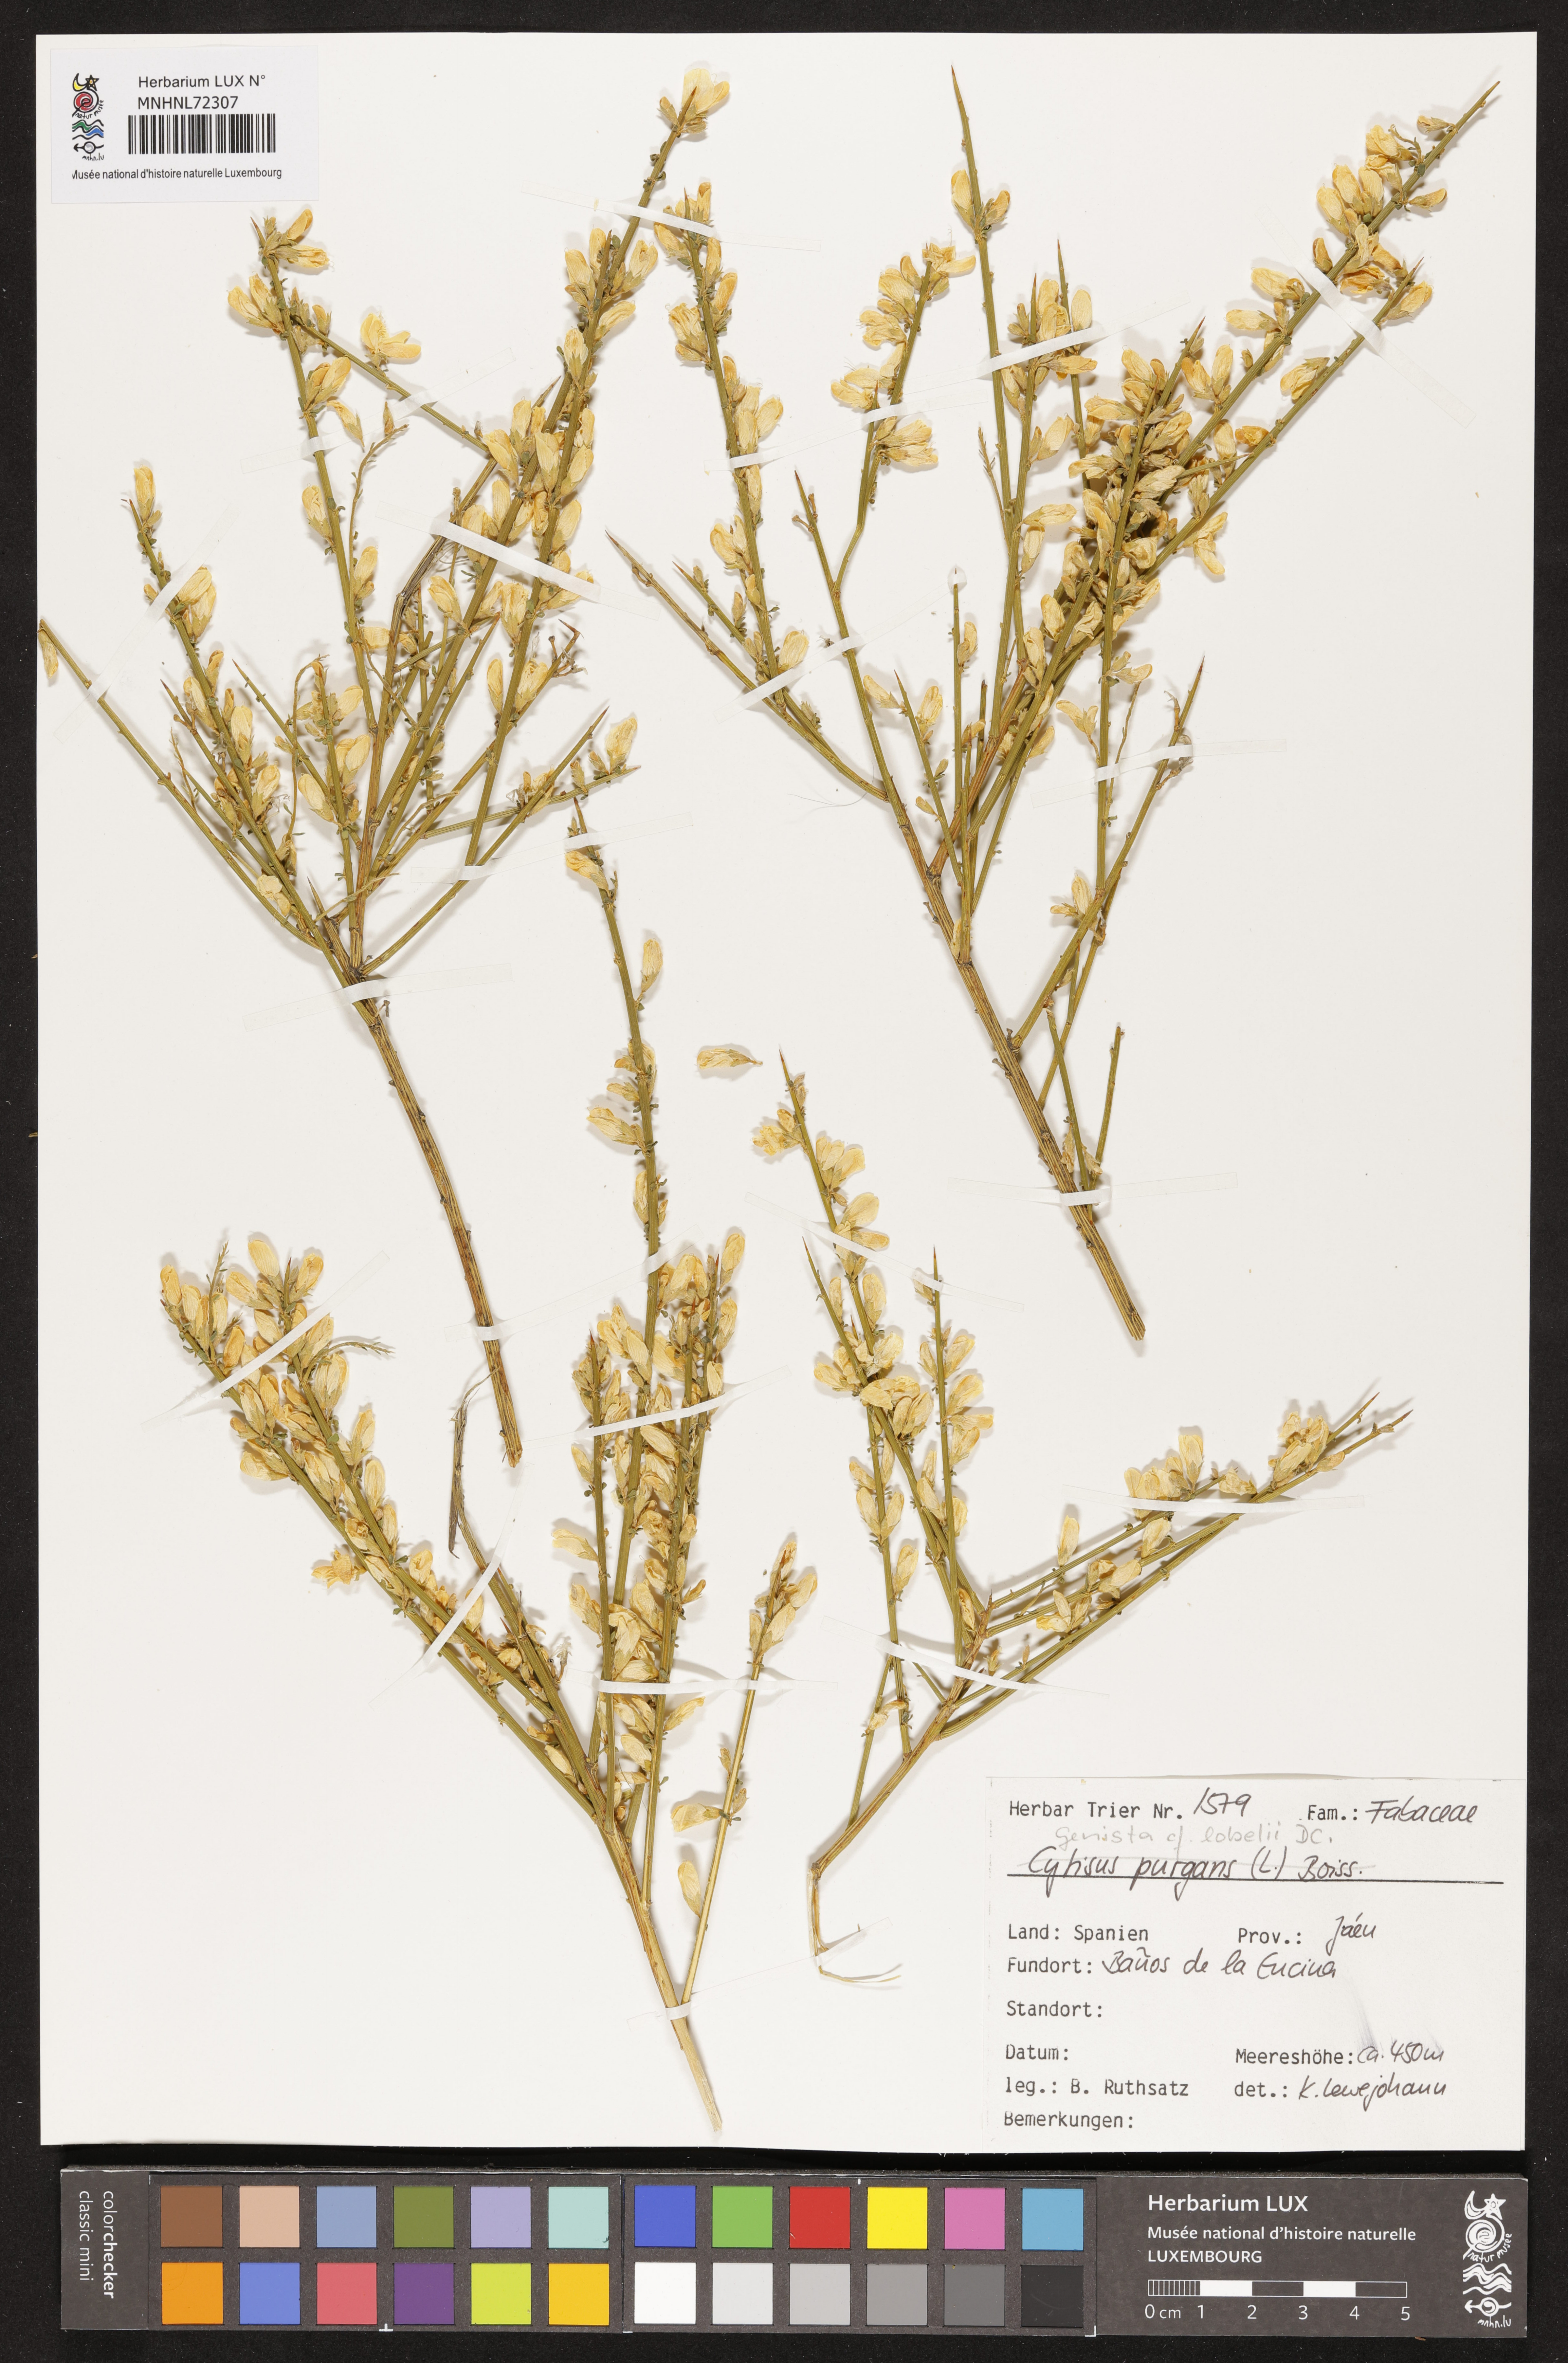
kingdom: Plantae
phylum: Tracheophyta
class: Magnoliopsida
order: Fabales
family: Fabaceae
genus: Genista
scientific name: Genista lobelii
